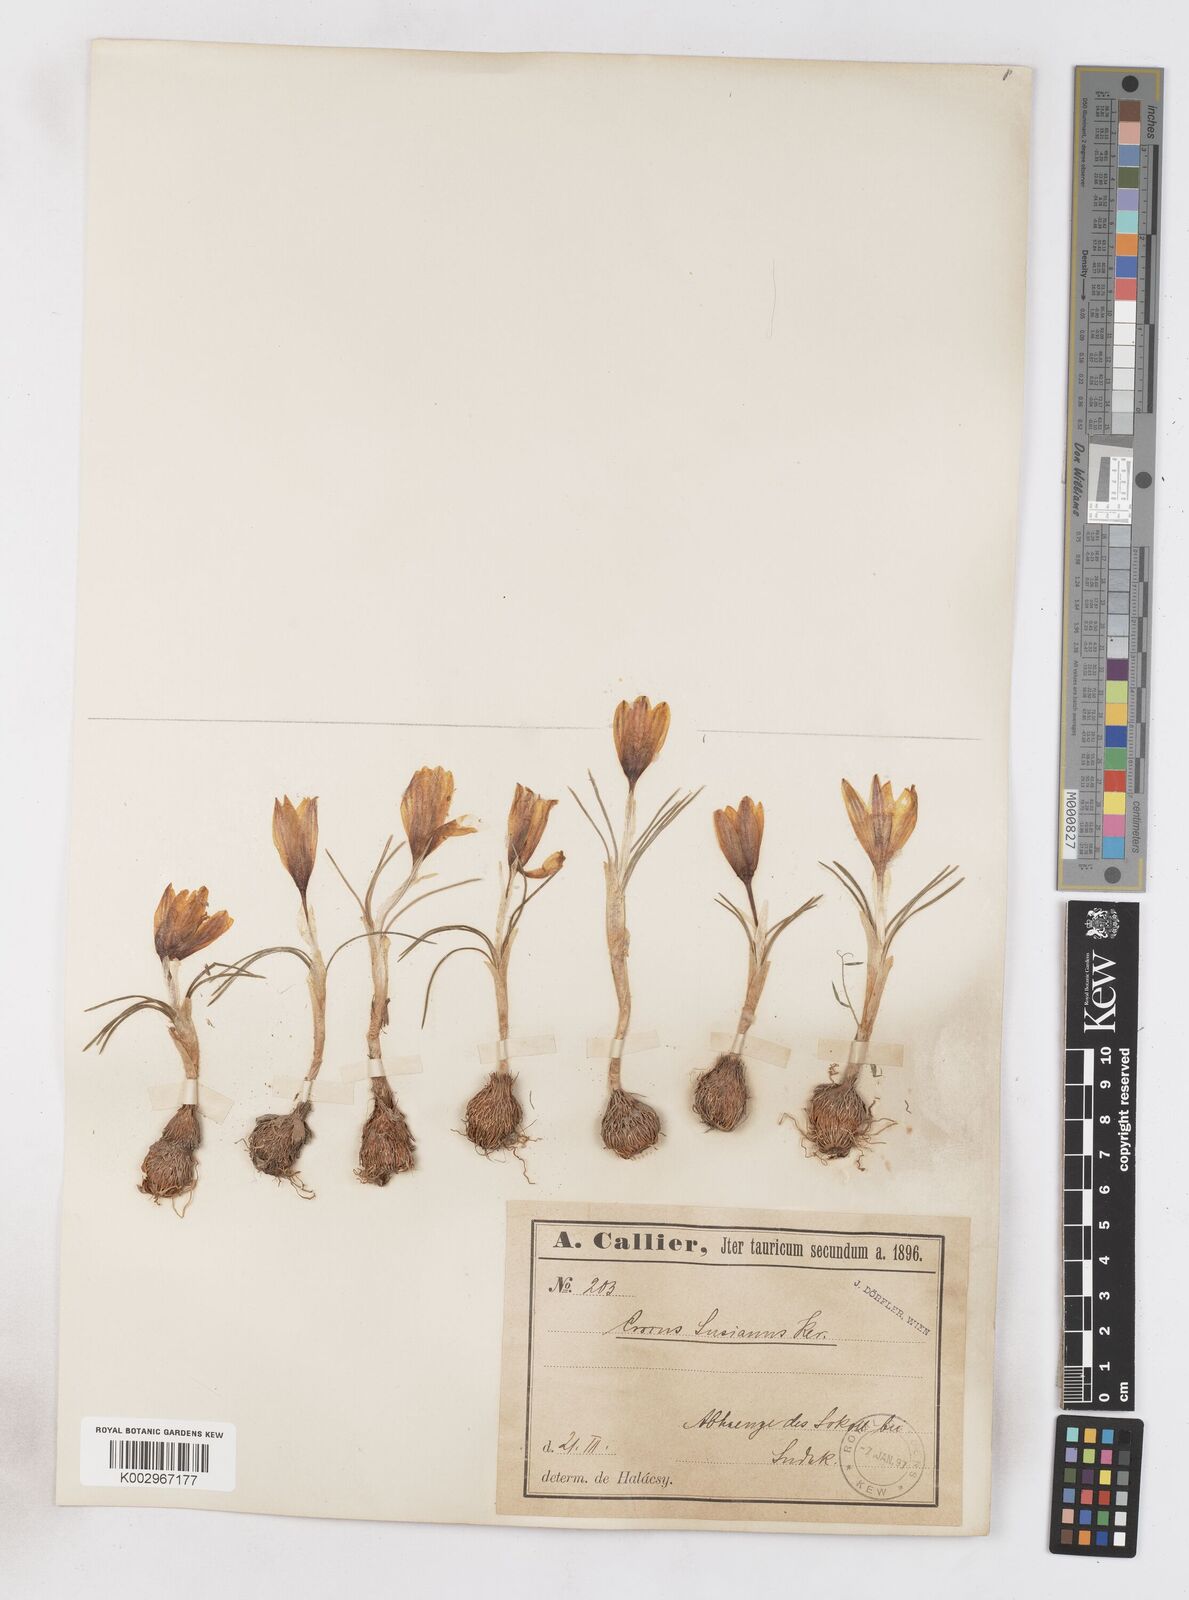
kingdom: Plantae
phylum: Tracheophyta
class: Liliopsida
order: Asparagales
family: Iridaceae
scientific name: Iridaceae
